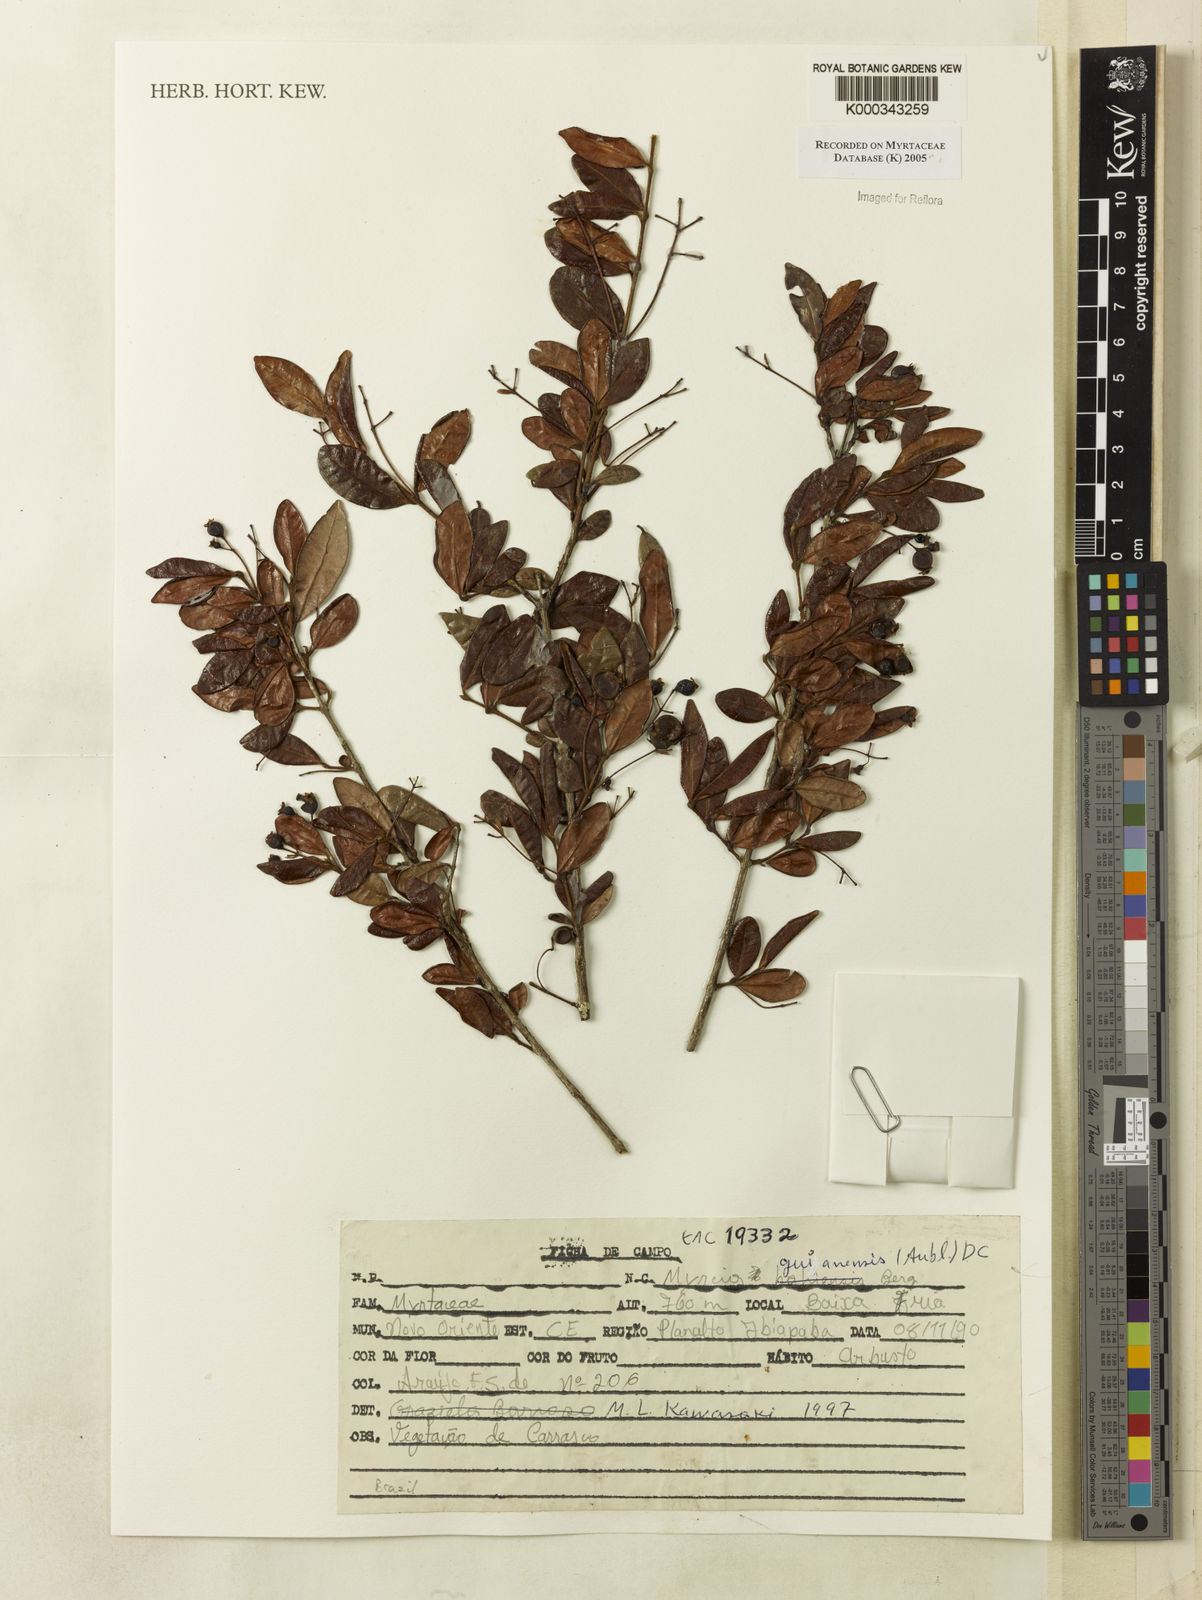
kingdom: Plantae
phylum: Tracheophyta
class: Magnoliopsida
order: Myrtales
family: Myrtaceae
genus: Myrcia
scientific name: Myrcia guianensis
